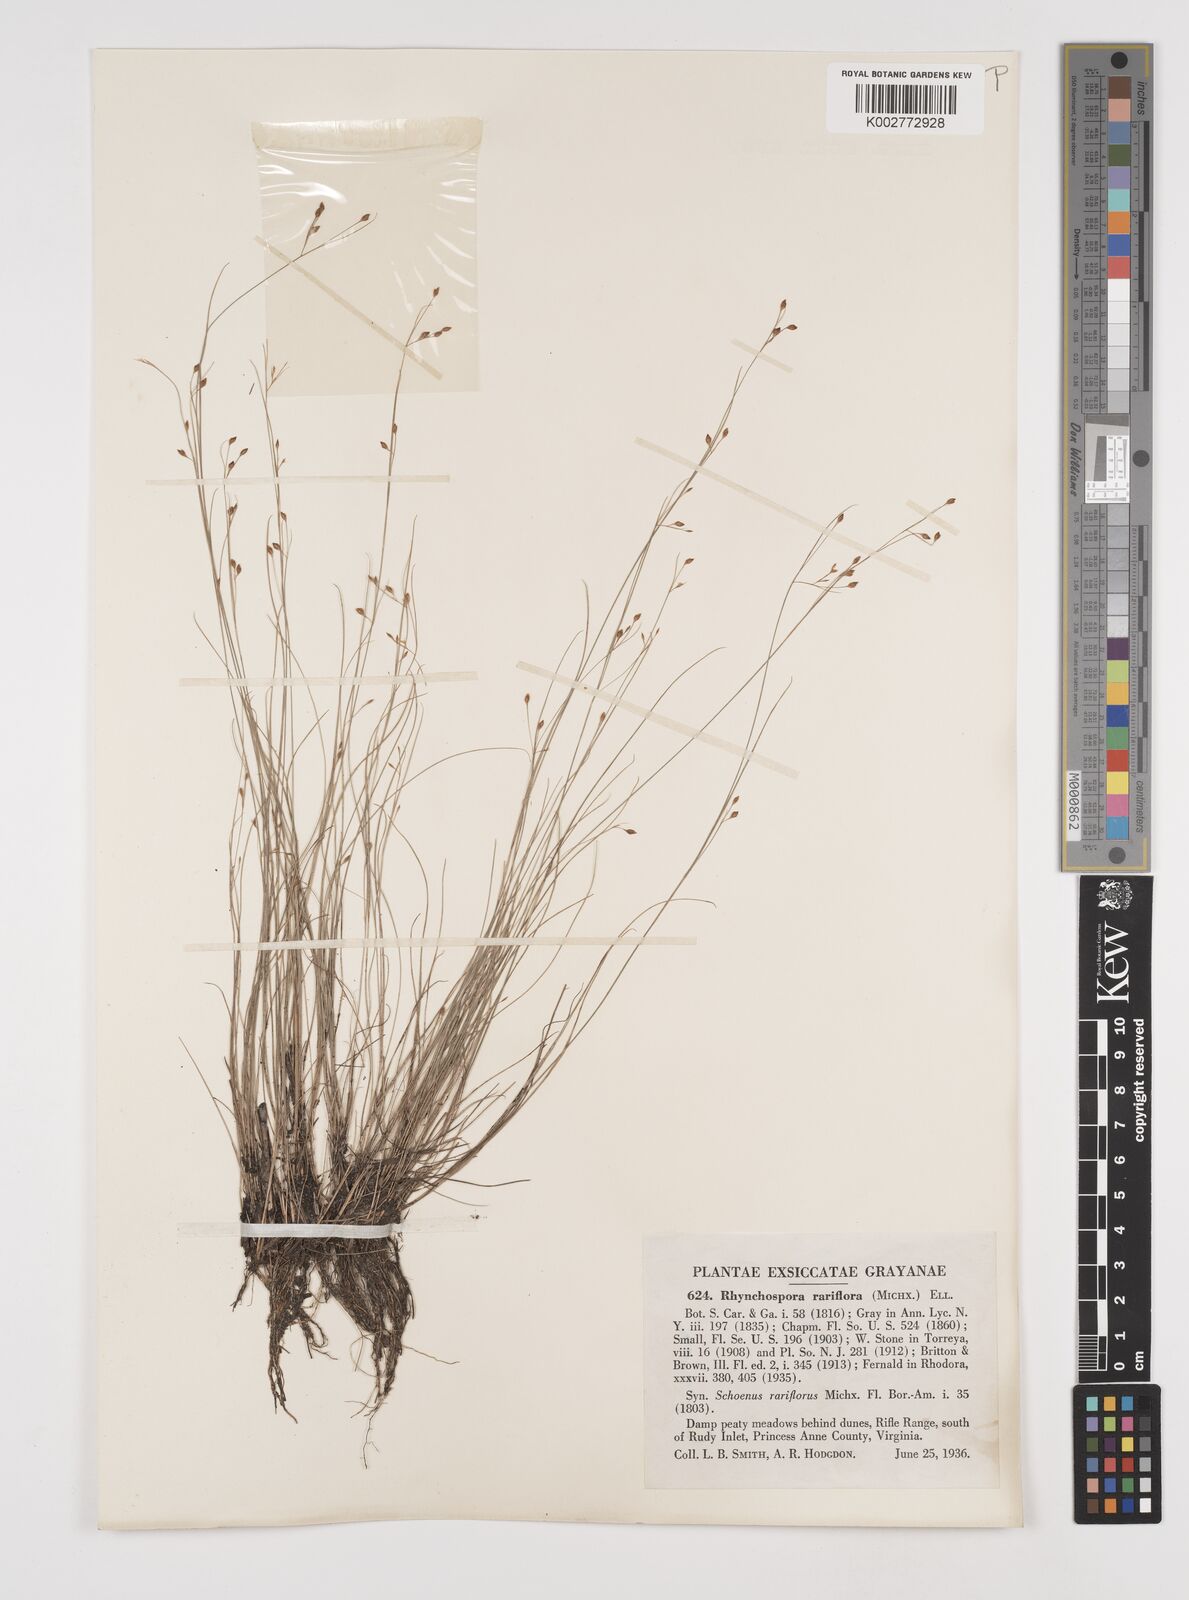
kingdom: Plantae
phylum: Tracheophyta
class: Liliopsida
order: Poales
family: Cyperaceae
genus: Rhynchospora
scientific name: Rhynchospora rariflora
